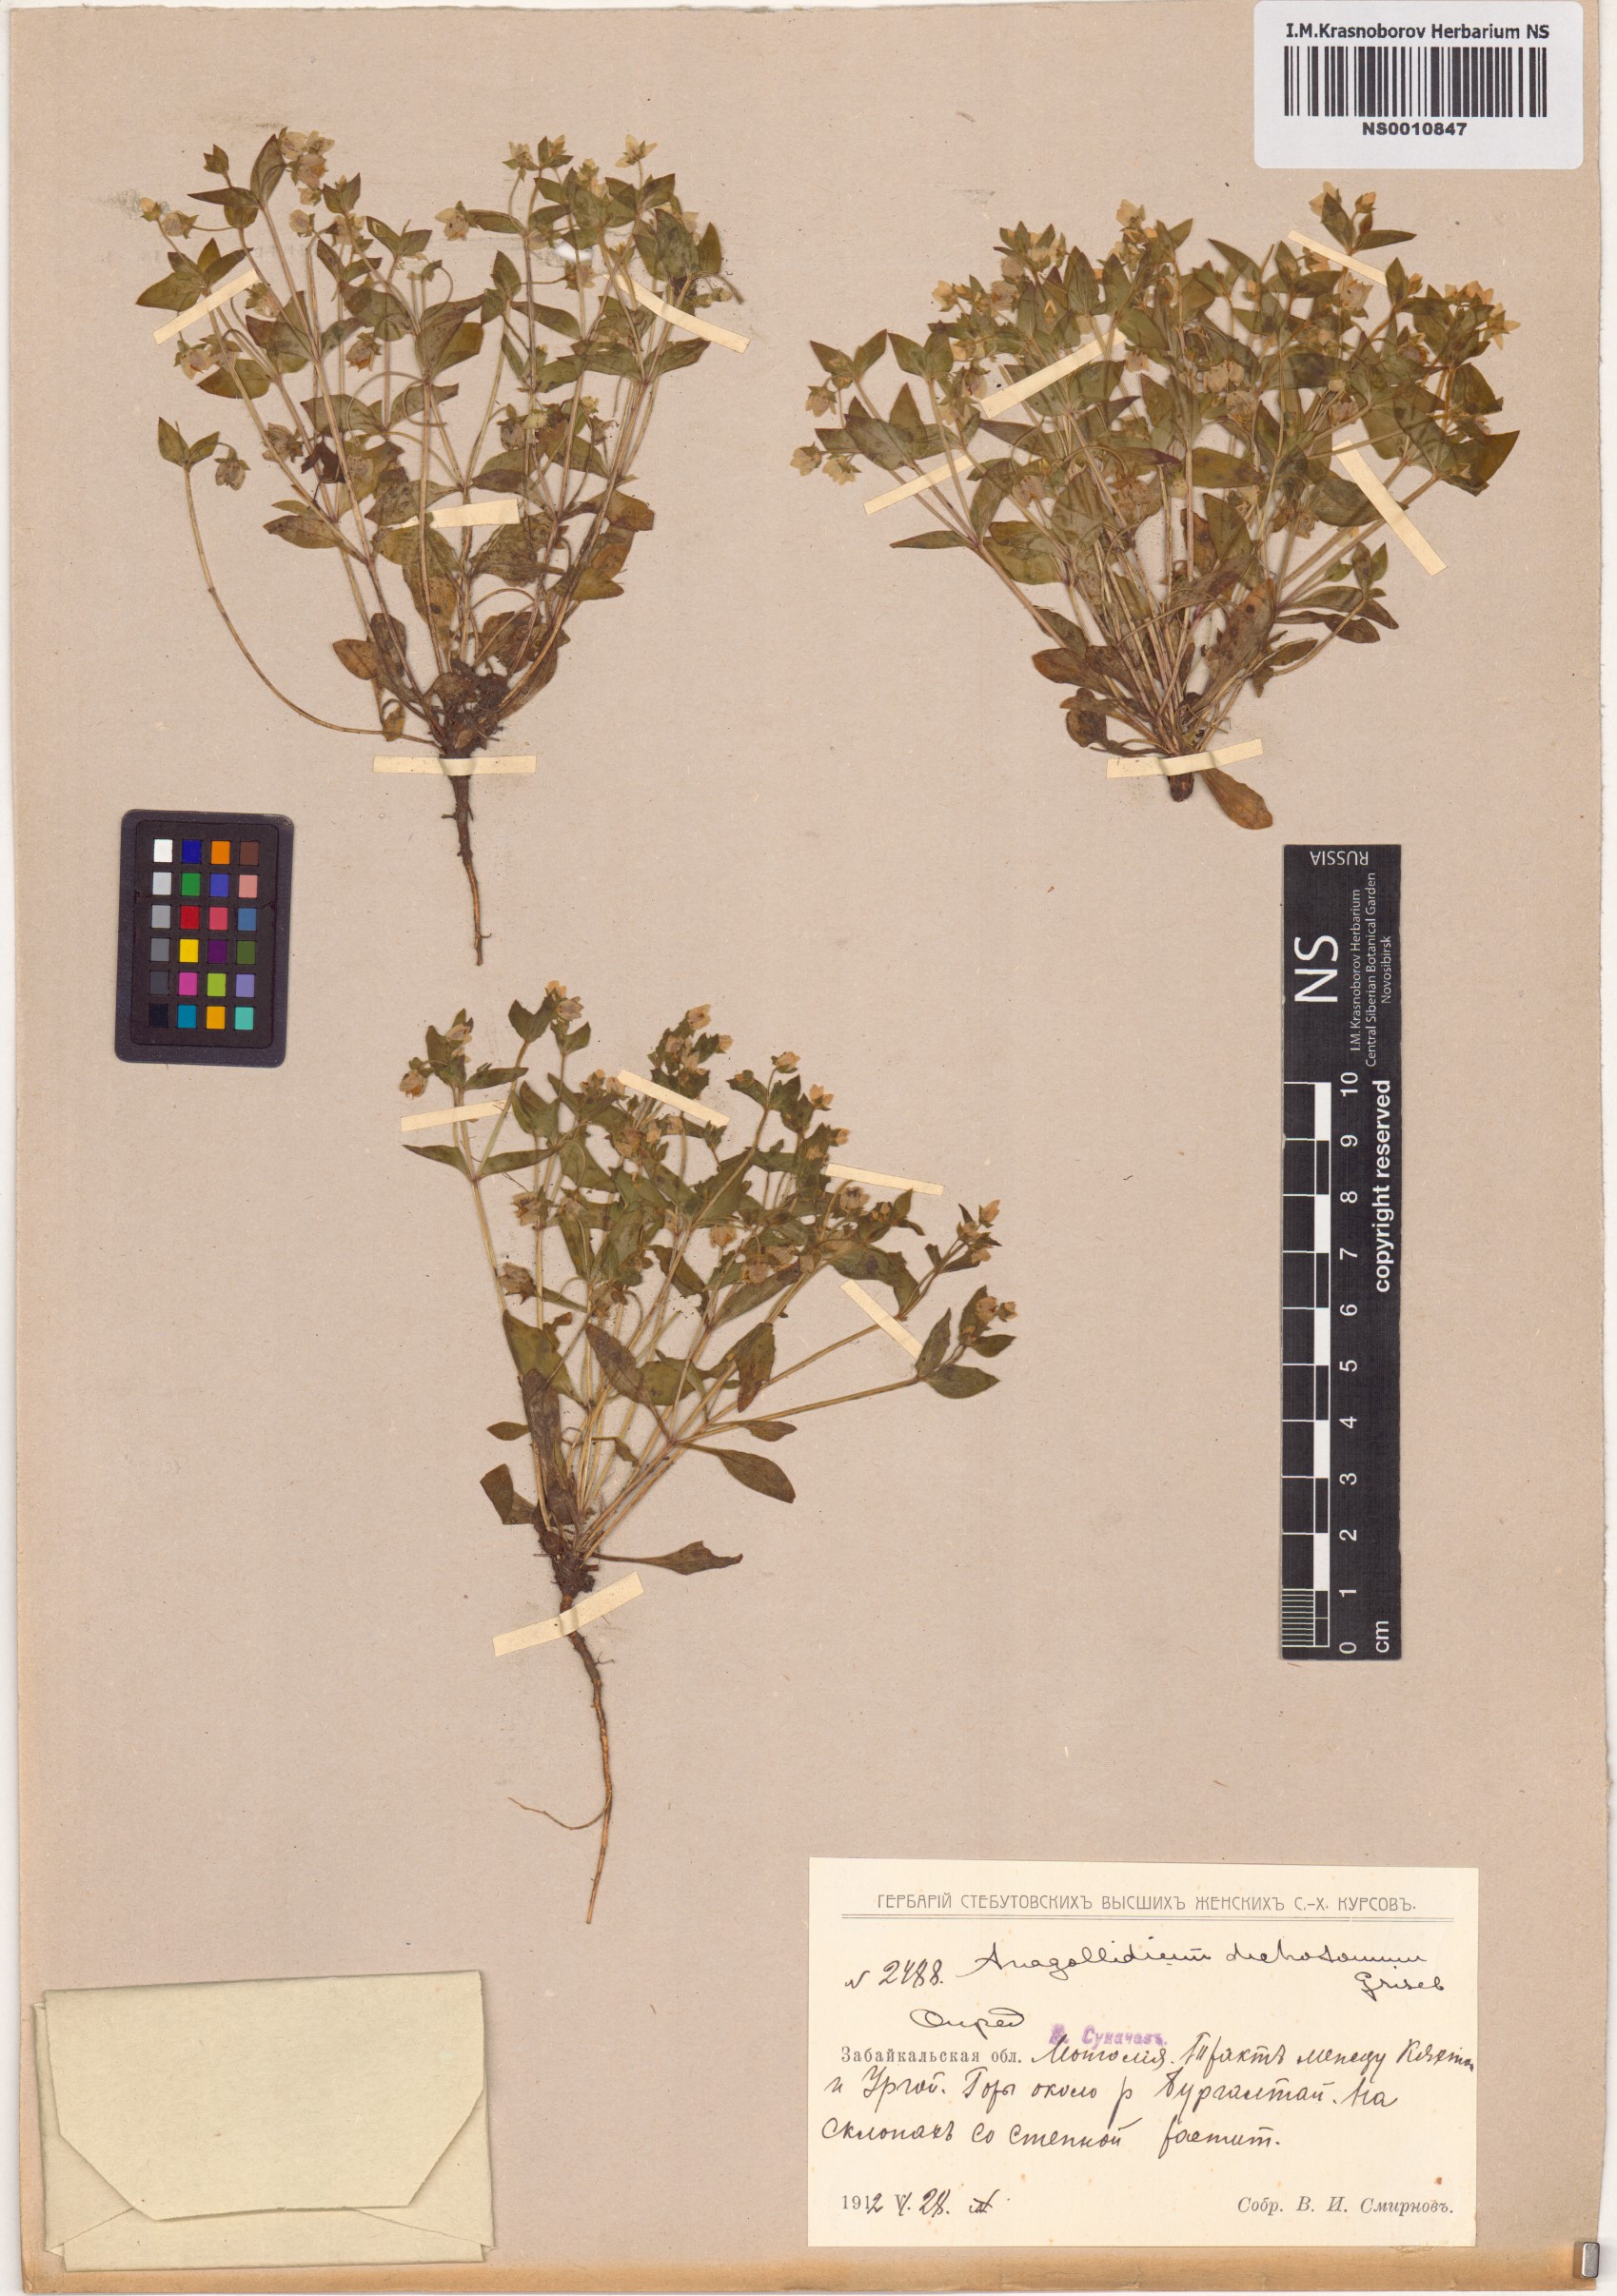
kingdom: Plantae
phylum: Tracheophyta
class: Magnoliopsida
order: Gentianales
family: Gentianaceae
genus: Swertia
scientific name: Swertia dichotoma
